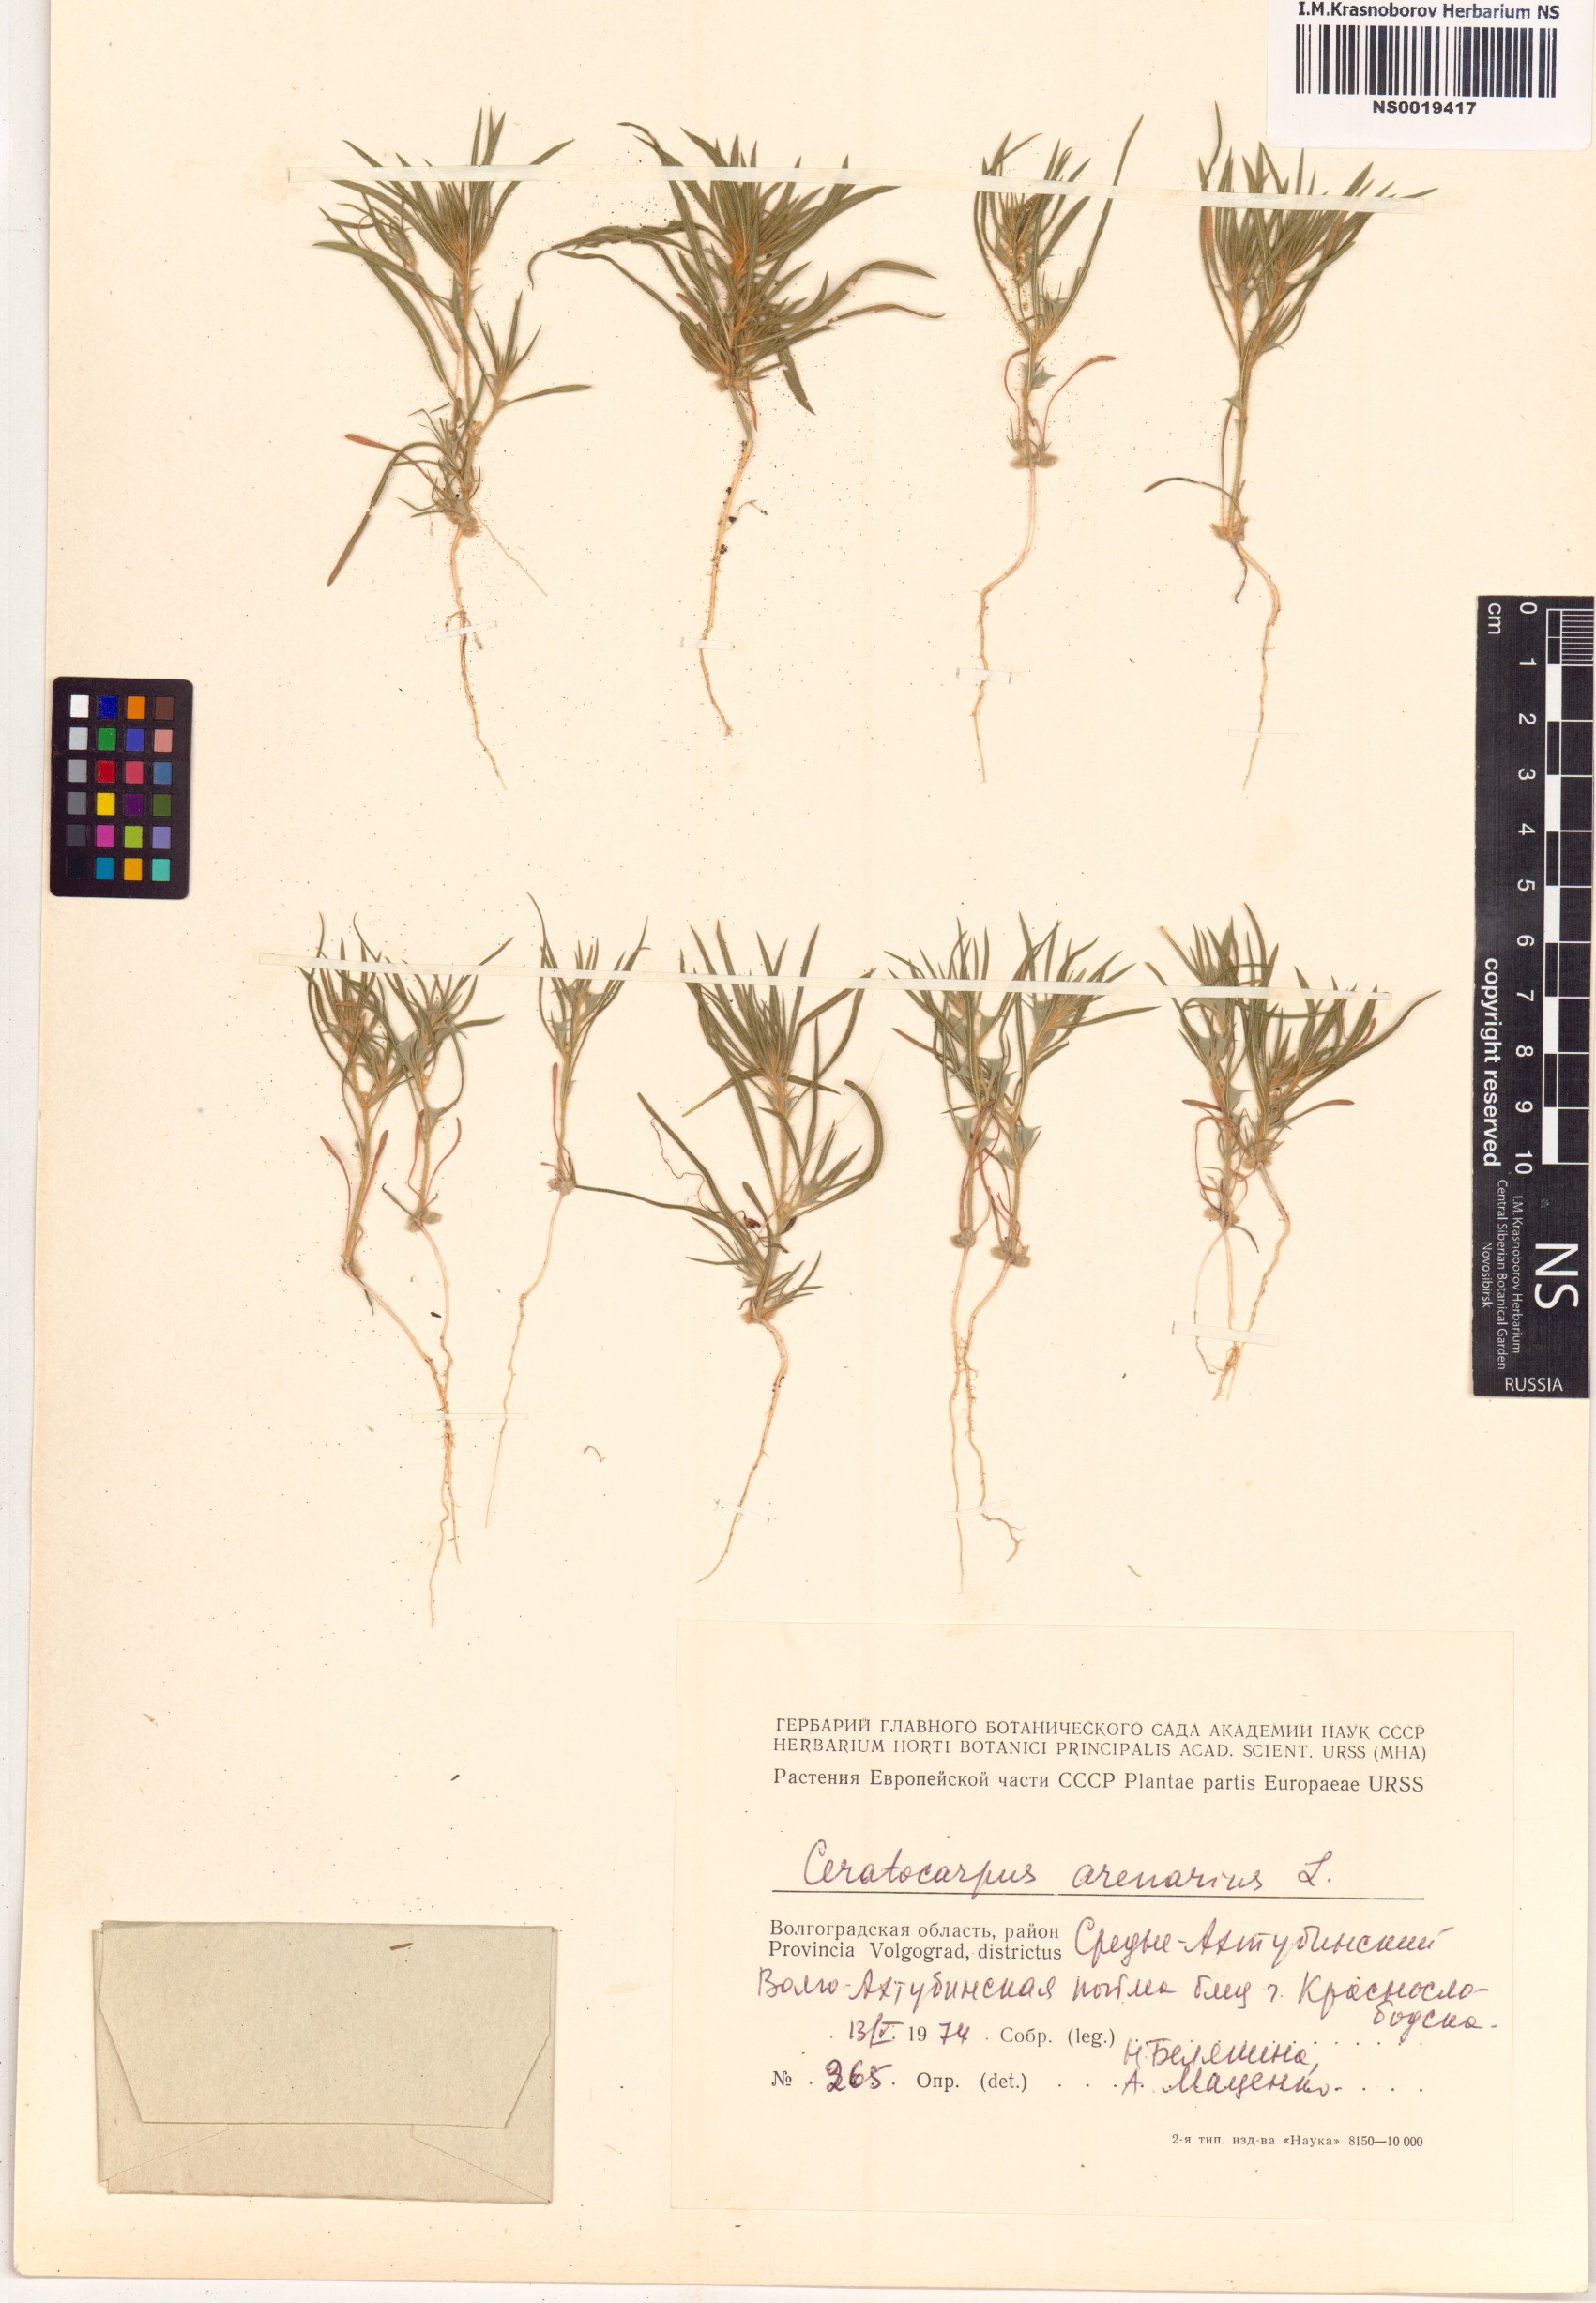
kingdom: Plantae
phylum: Tracheophyta
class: Magnoliopsida
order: Caryophyllales
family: Amaranthaceae
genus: Ceratocarpus
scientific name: Ceratocarpus arenarius
